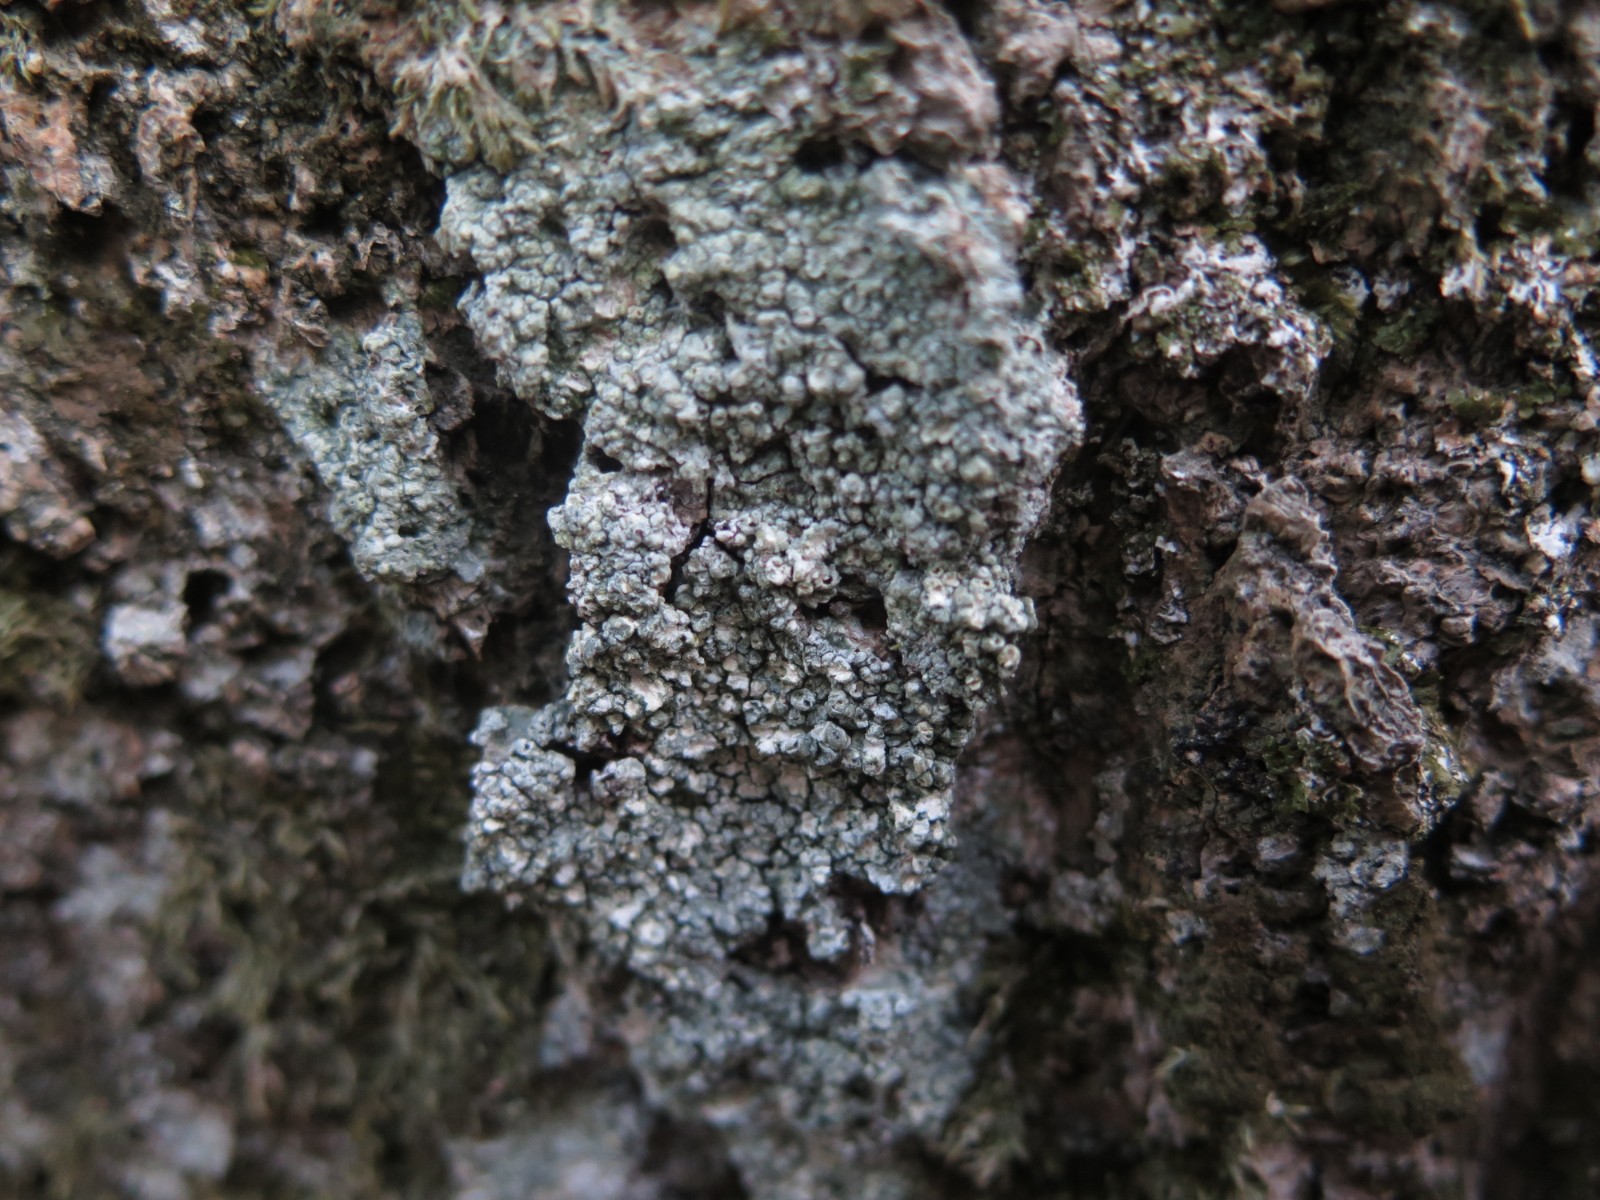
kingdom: Fungi
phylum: Ascomycota
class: Lecanoromycetes
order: Pertusariales
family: Pertusariaceae
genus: Pertusaria
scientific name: Pertusaria pertusa
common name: almindelig prikvortelav
